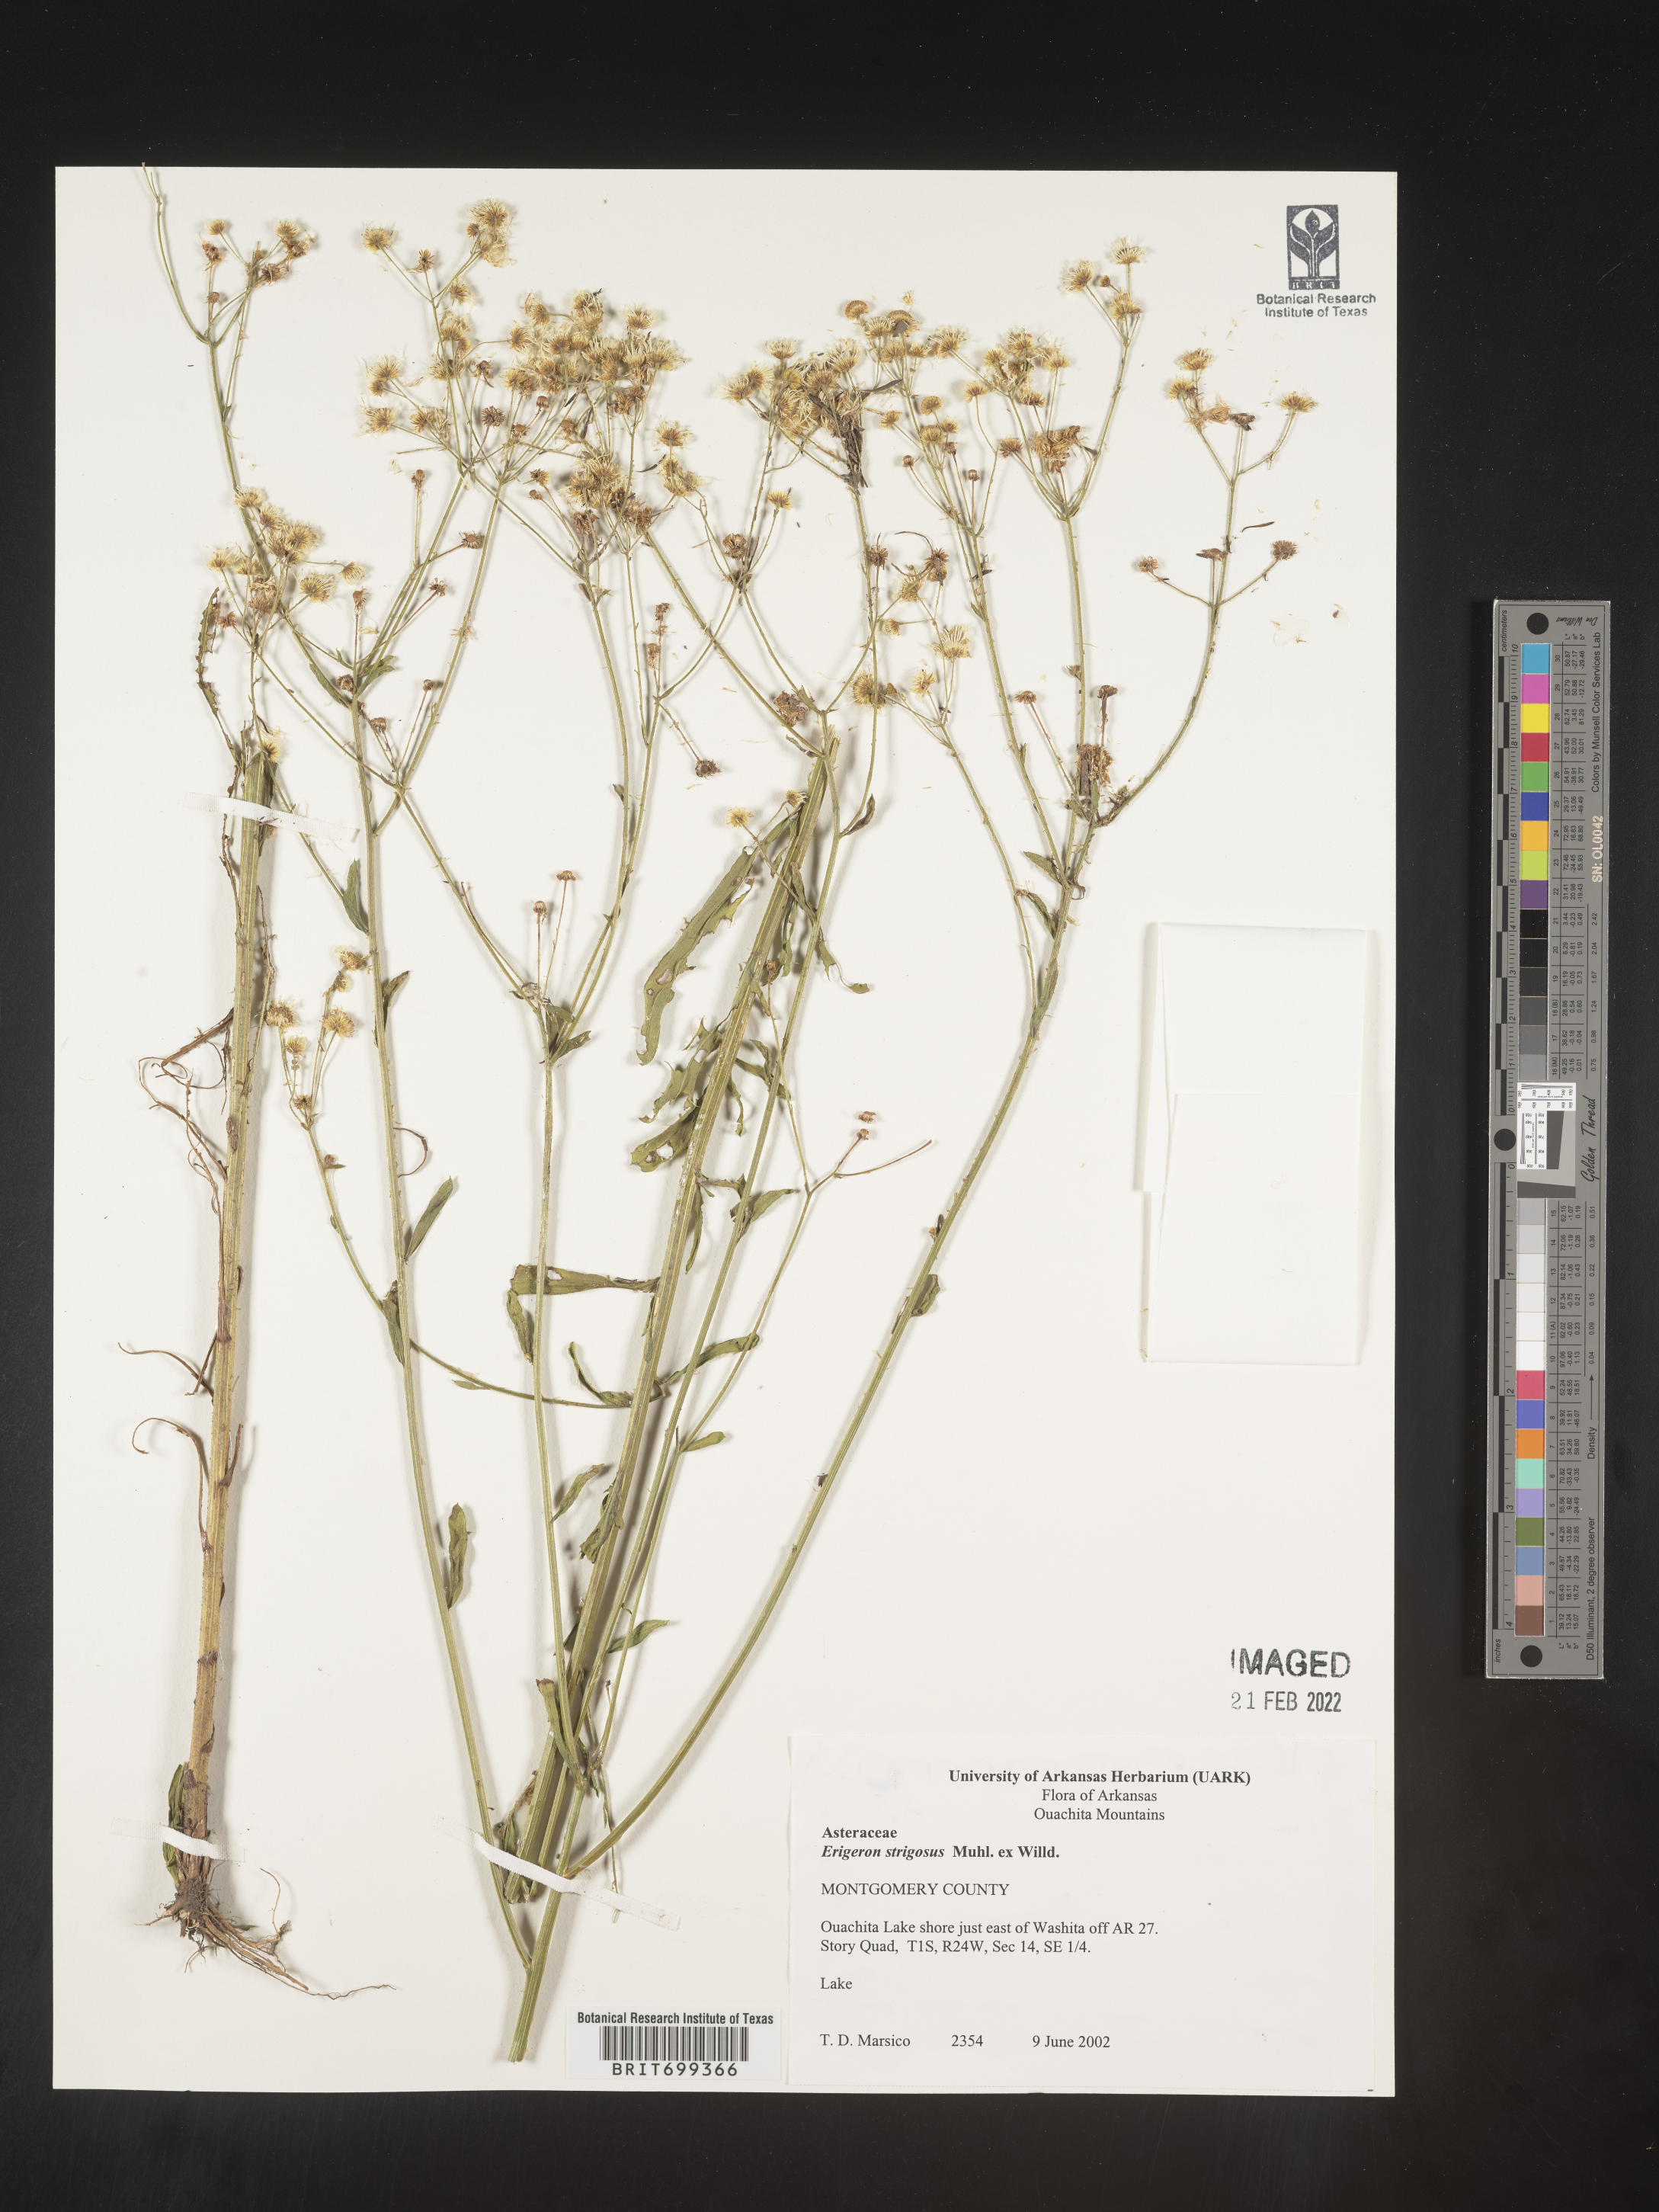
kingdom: Plantae
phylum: Tracheophyta
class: Magnoliopsida
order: Asterales
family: Asteraceae
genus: Erigeron
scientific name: Erigeron strigosus
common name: Common eastern fleabane
